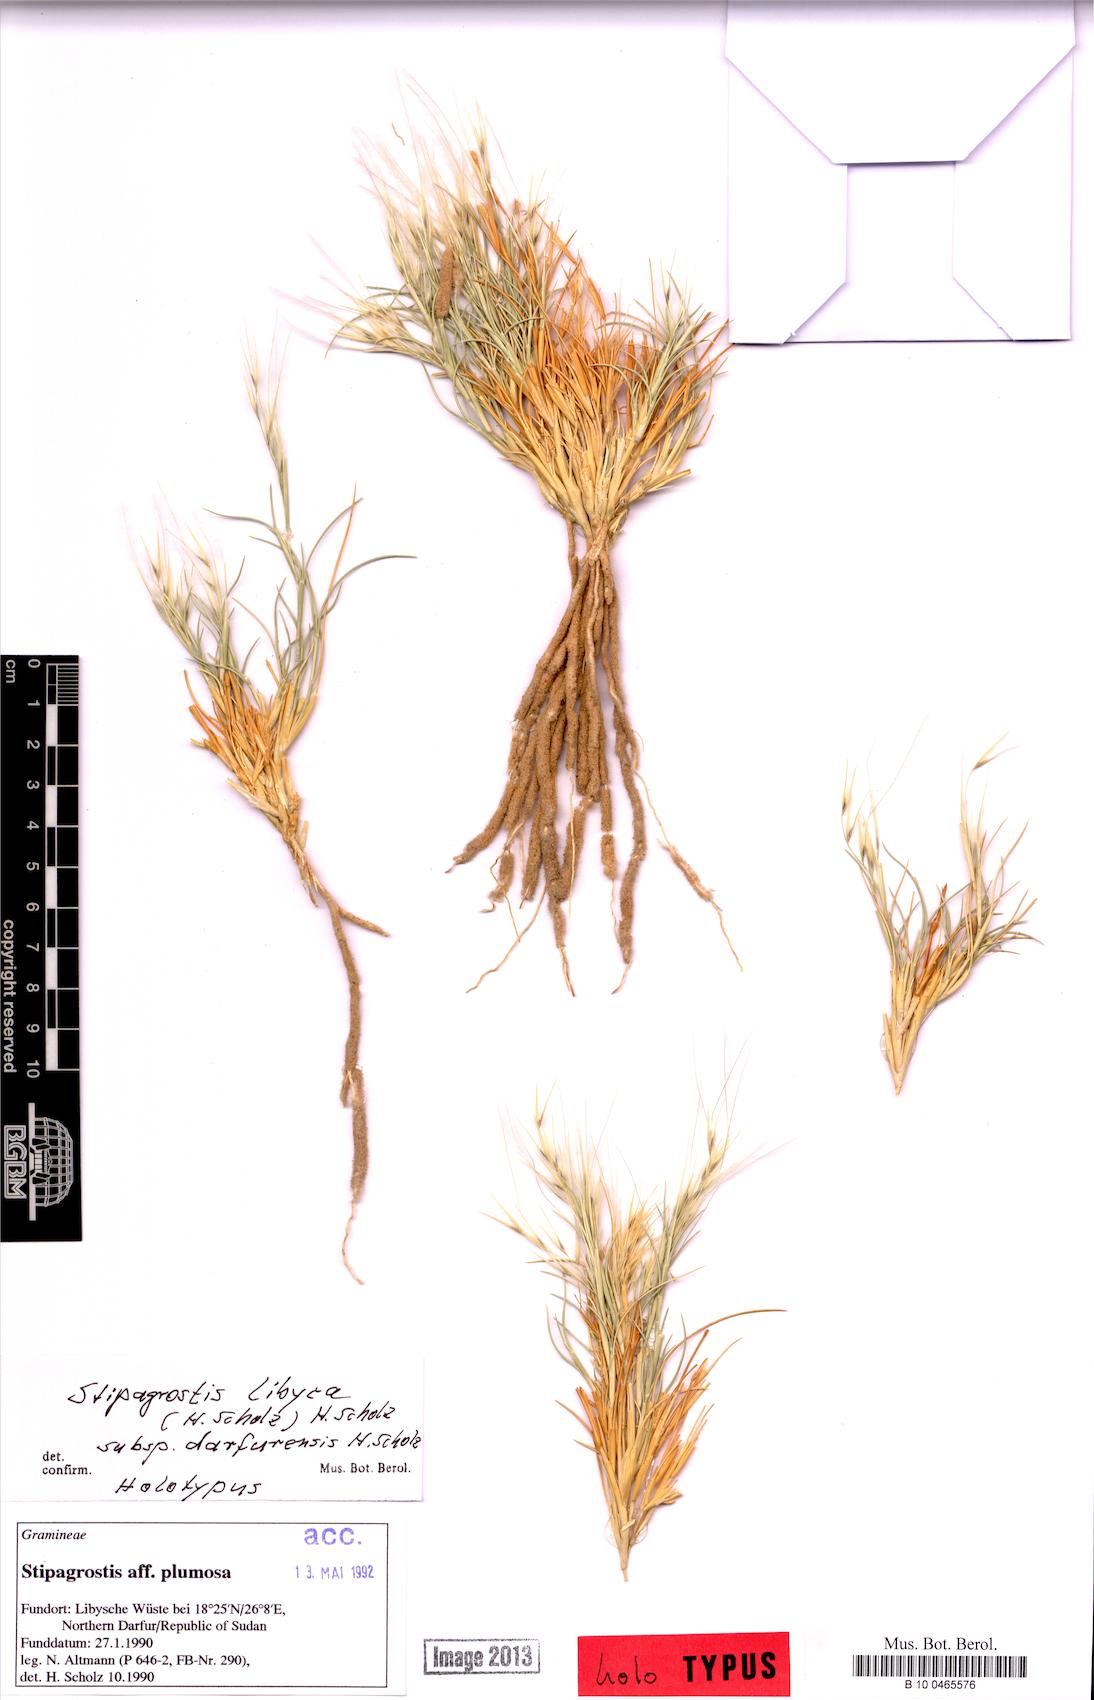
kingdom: Plantae
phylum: Tracheophyta
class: Liliopsida
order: Poales
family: Poaceae
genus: Stipagrostis
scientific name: Stipagrostis libyca
